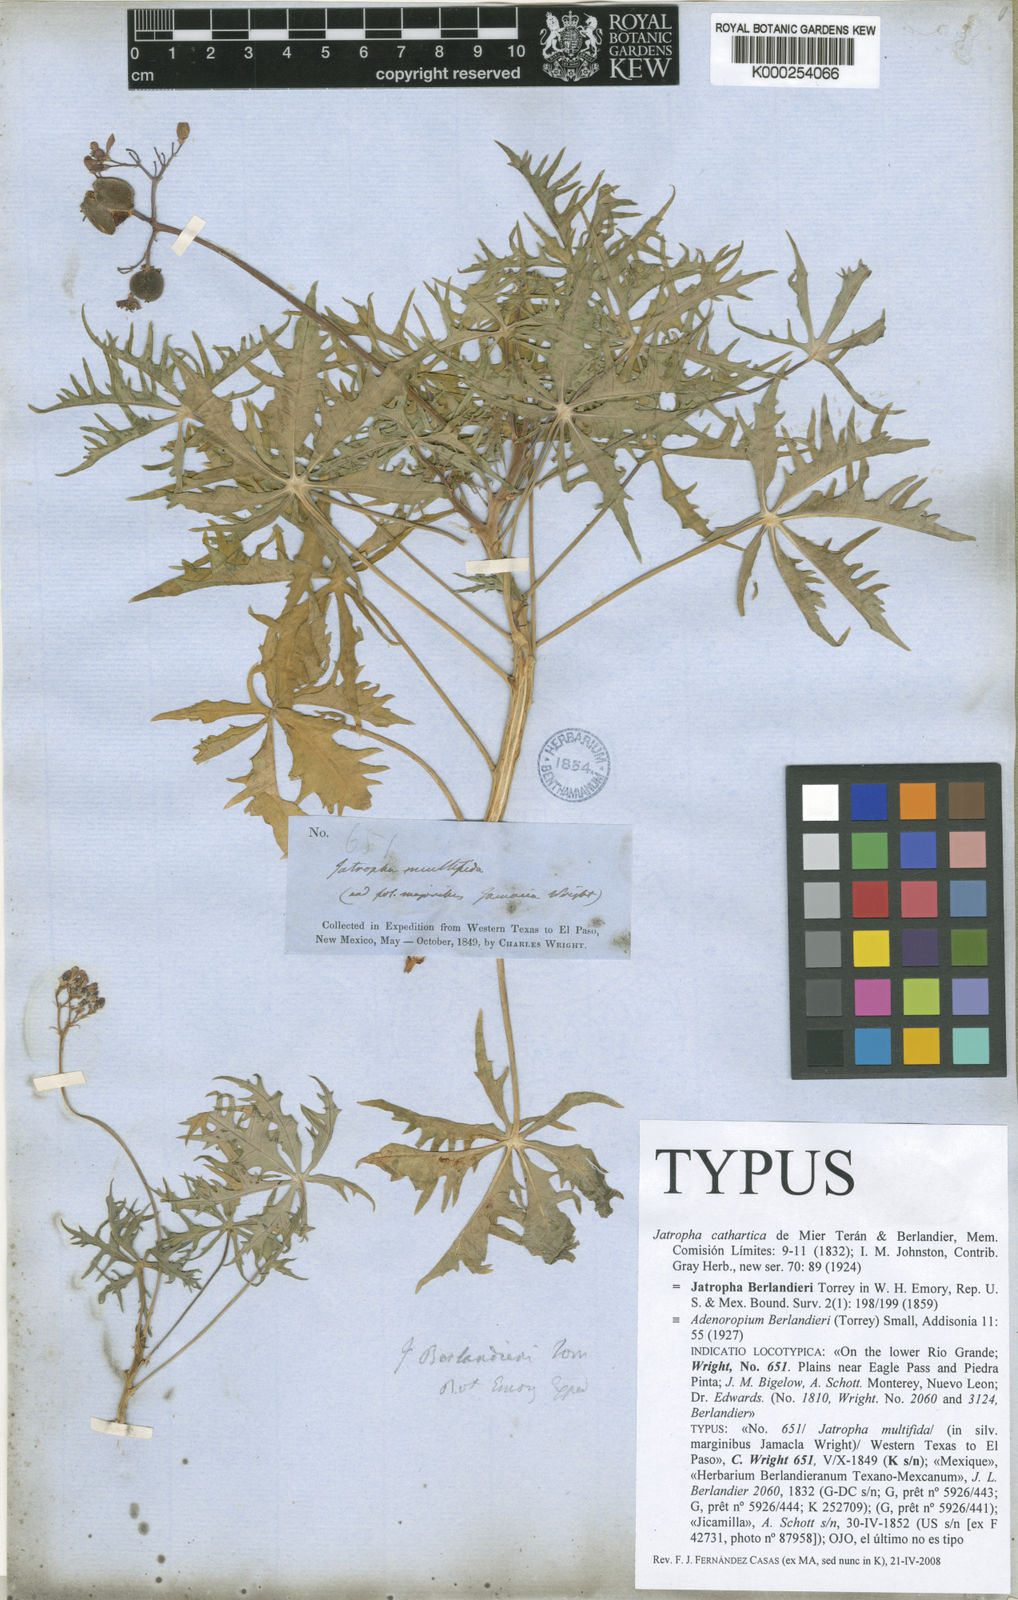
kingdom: Plantae
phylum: Tracheophyta
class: Magnoliopsida
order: Malpighiales
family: Euphorbiaceae
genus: Jatropha
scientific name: Jatropha cathartica
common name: Berlander's nettlespurge
